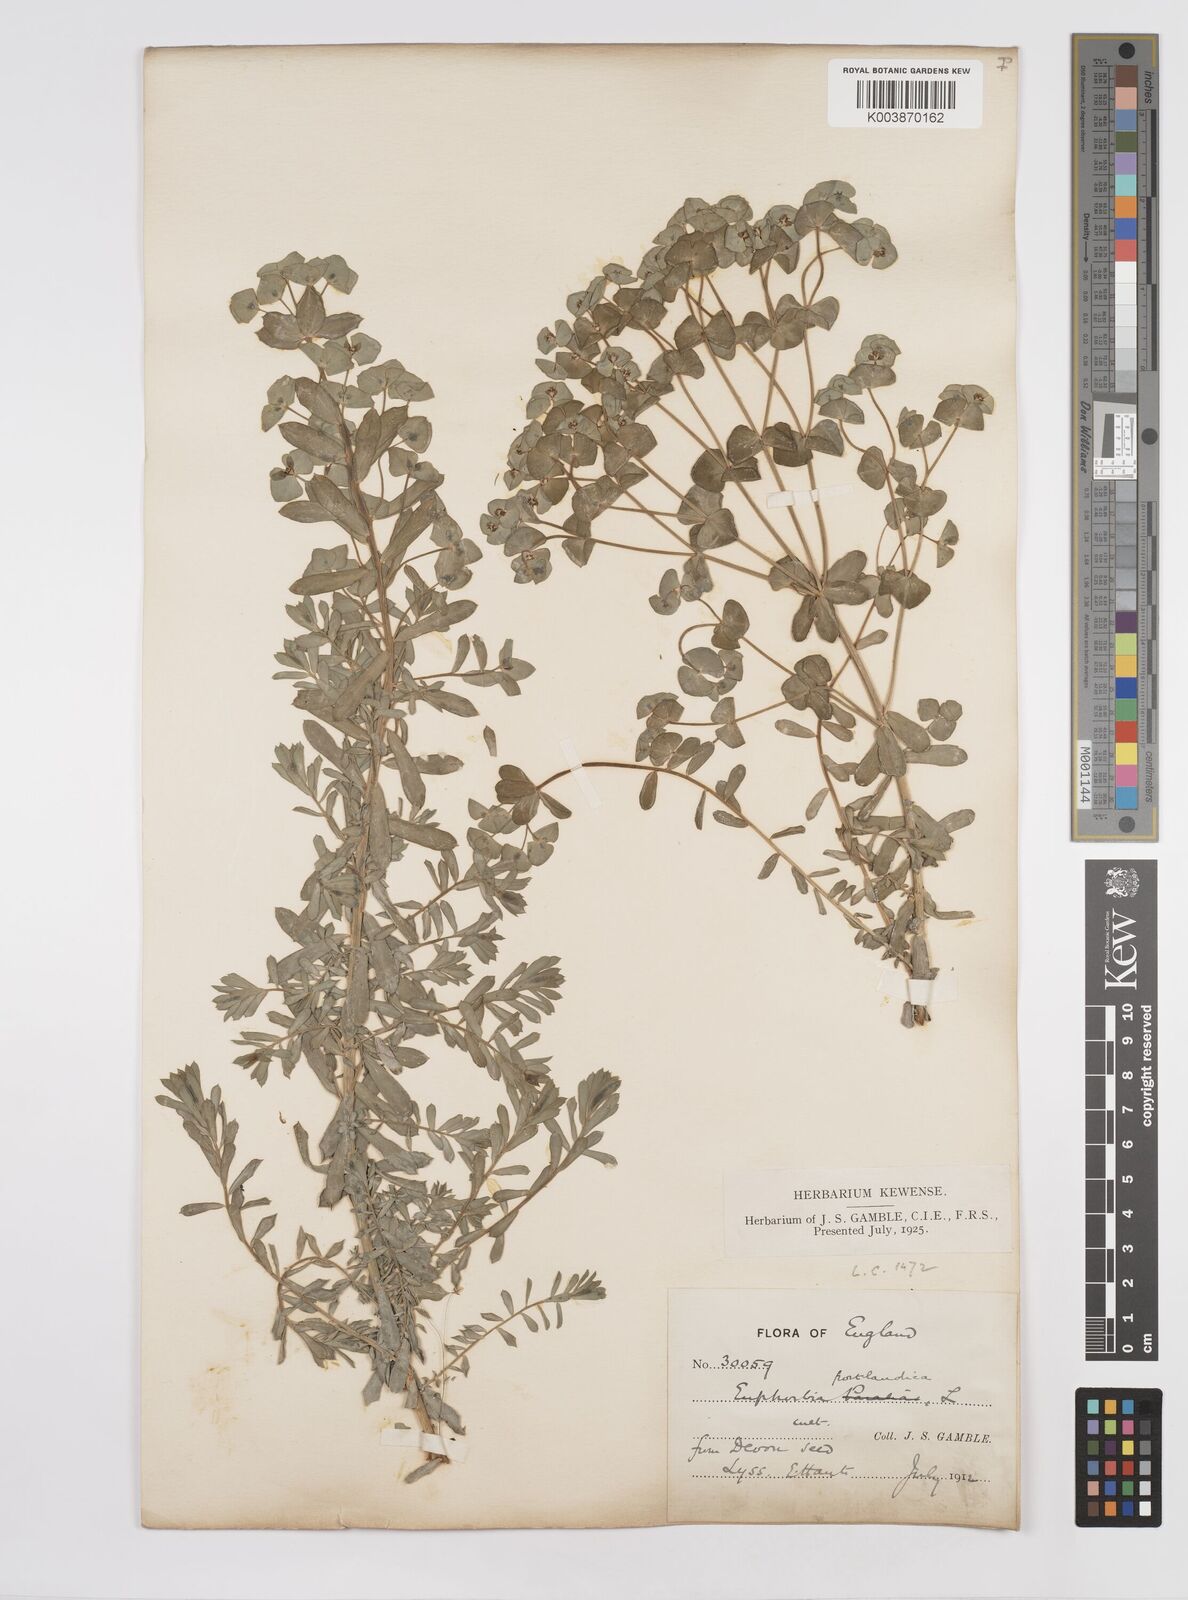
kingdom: Plantae
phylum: Tracheophyta
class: Magnoliopsida
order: Malpighiales
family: Euphorbiaceae
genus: Euphorbia
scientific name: Euphorbia portlandica
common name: Portland spurge
